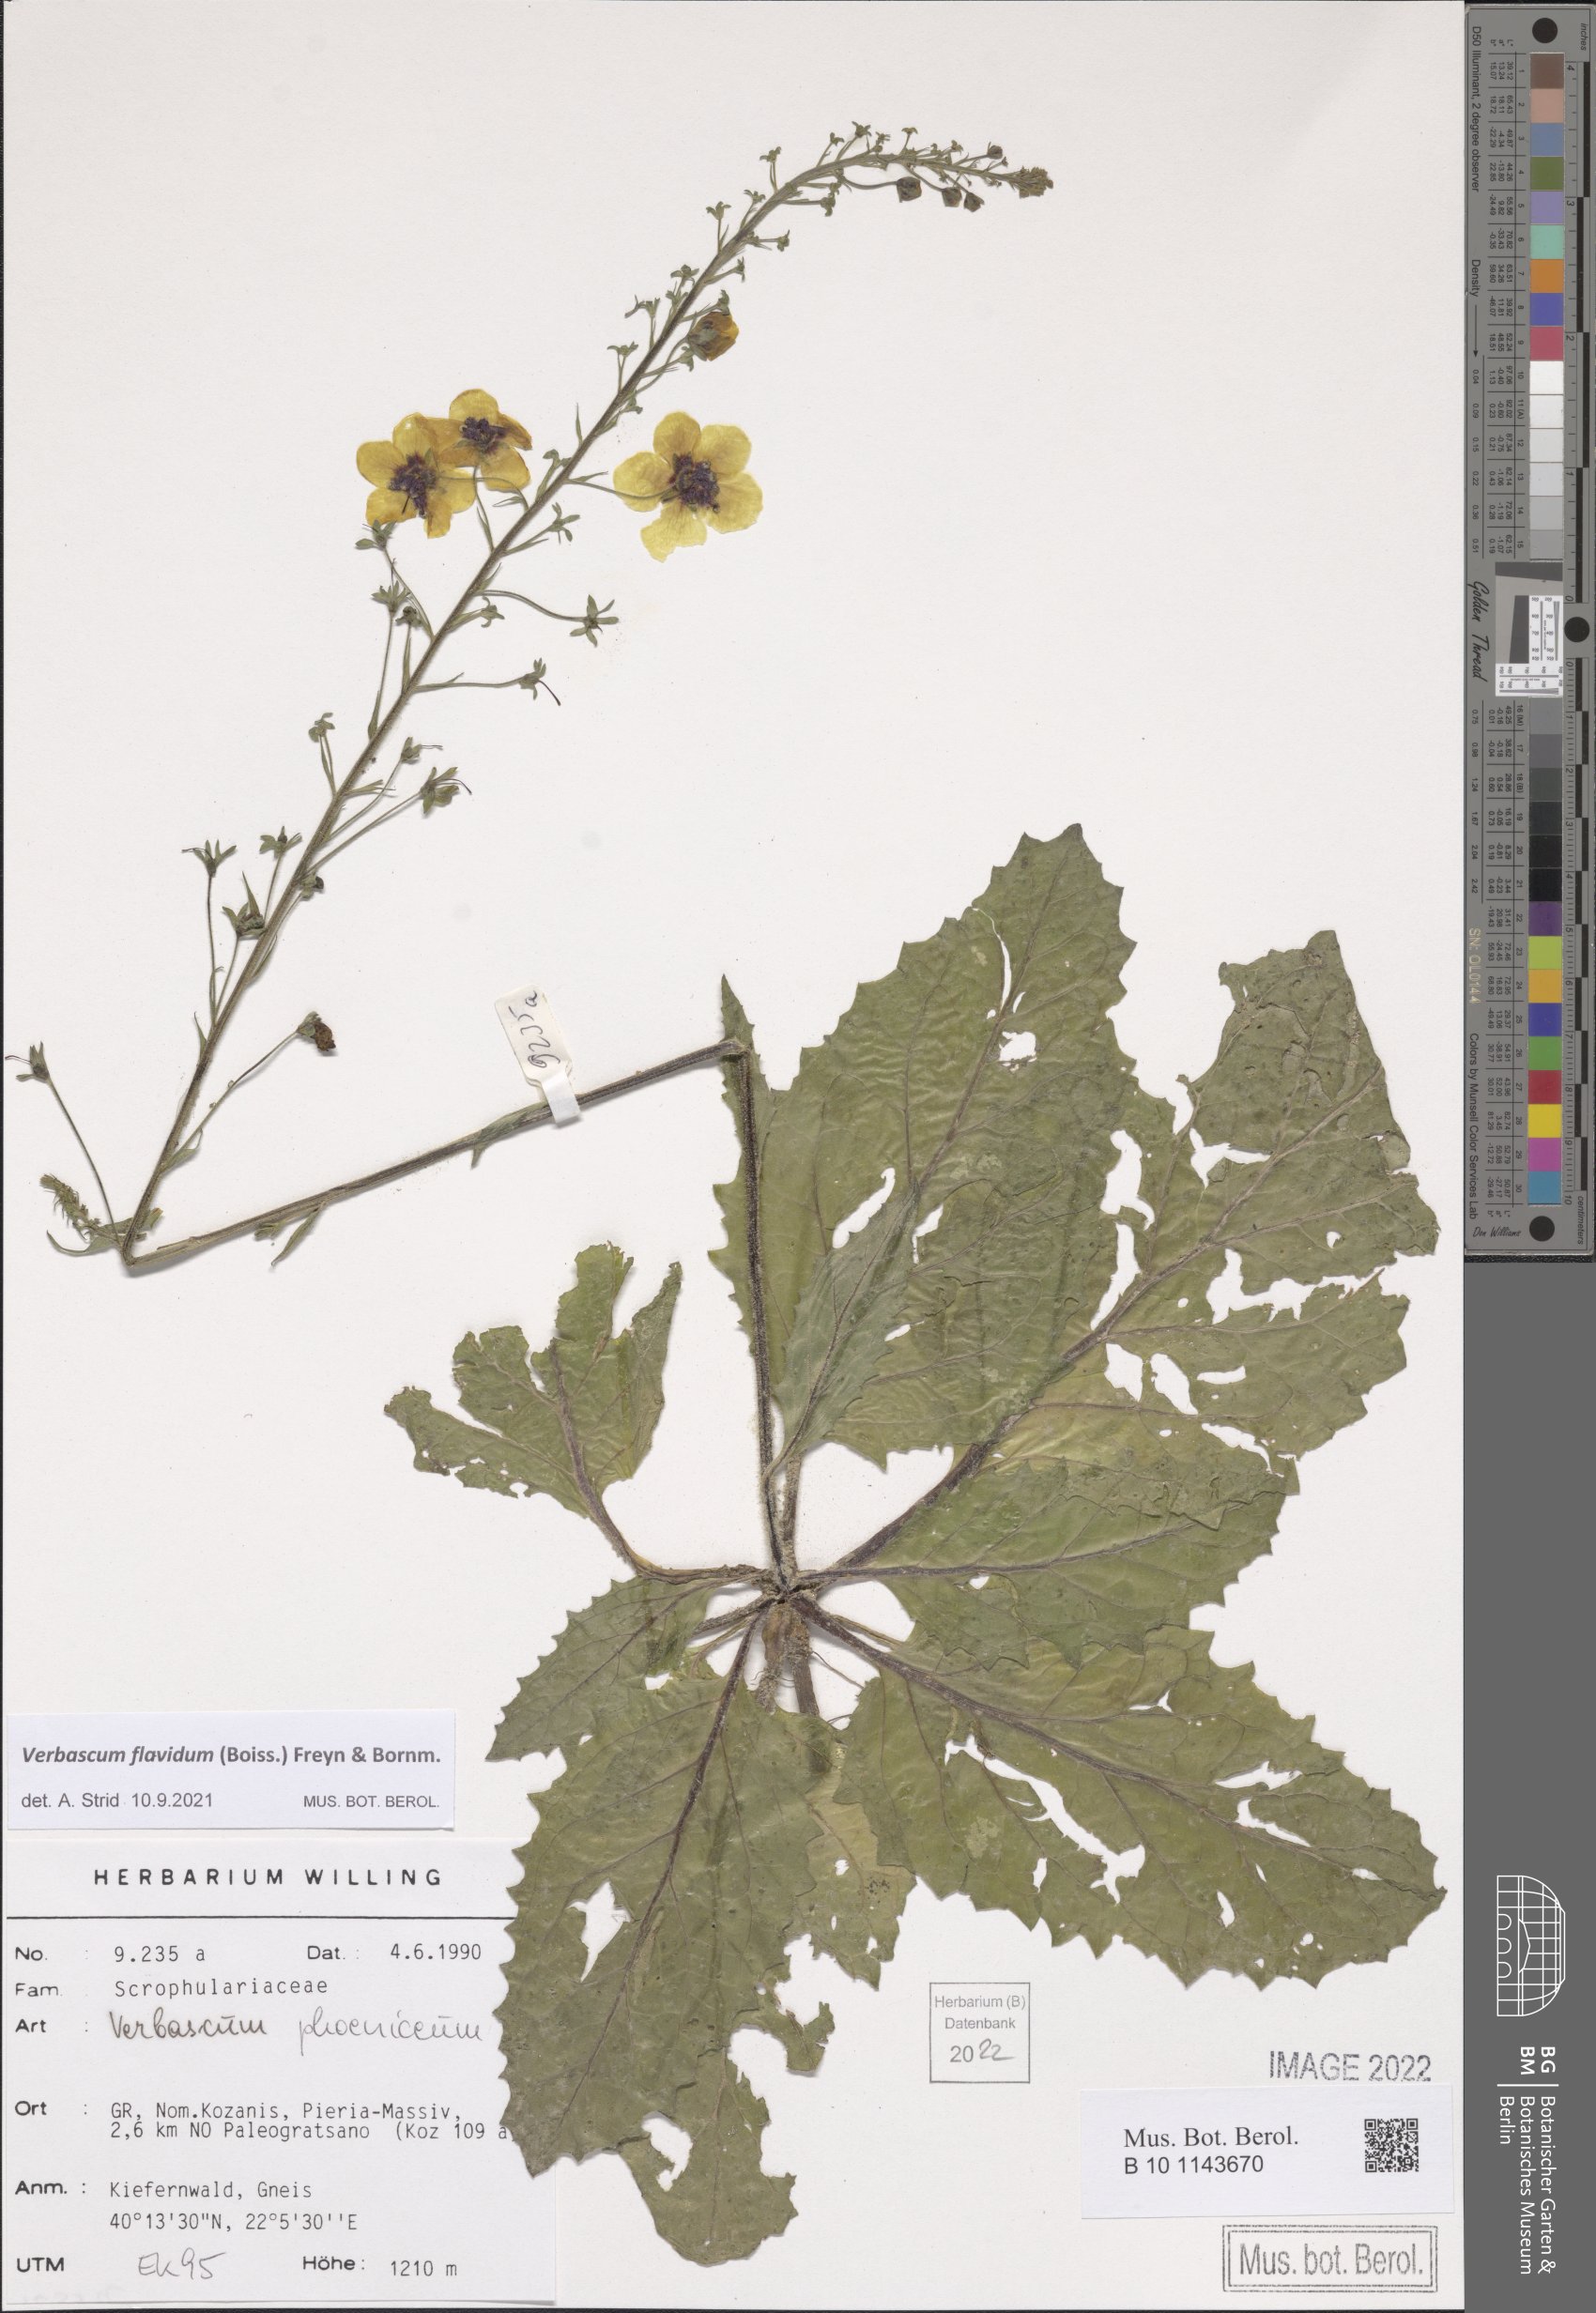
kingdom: Plantae
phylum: Tracheophyta
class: Magnoliopsida
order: Lamiales
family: Scrophulariaceae
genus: Verbascum
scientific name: Verbascum flavidum
